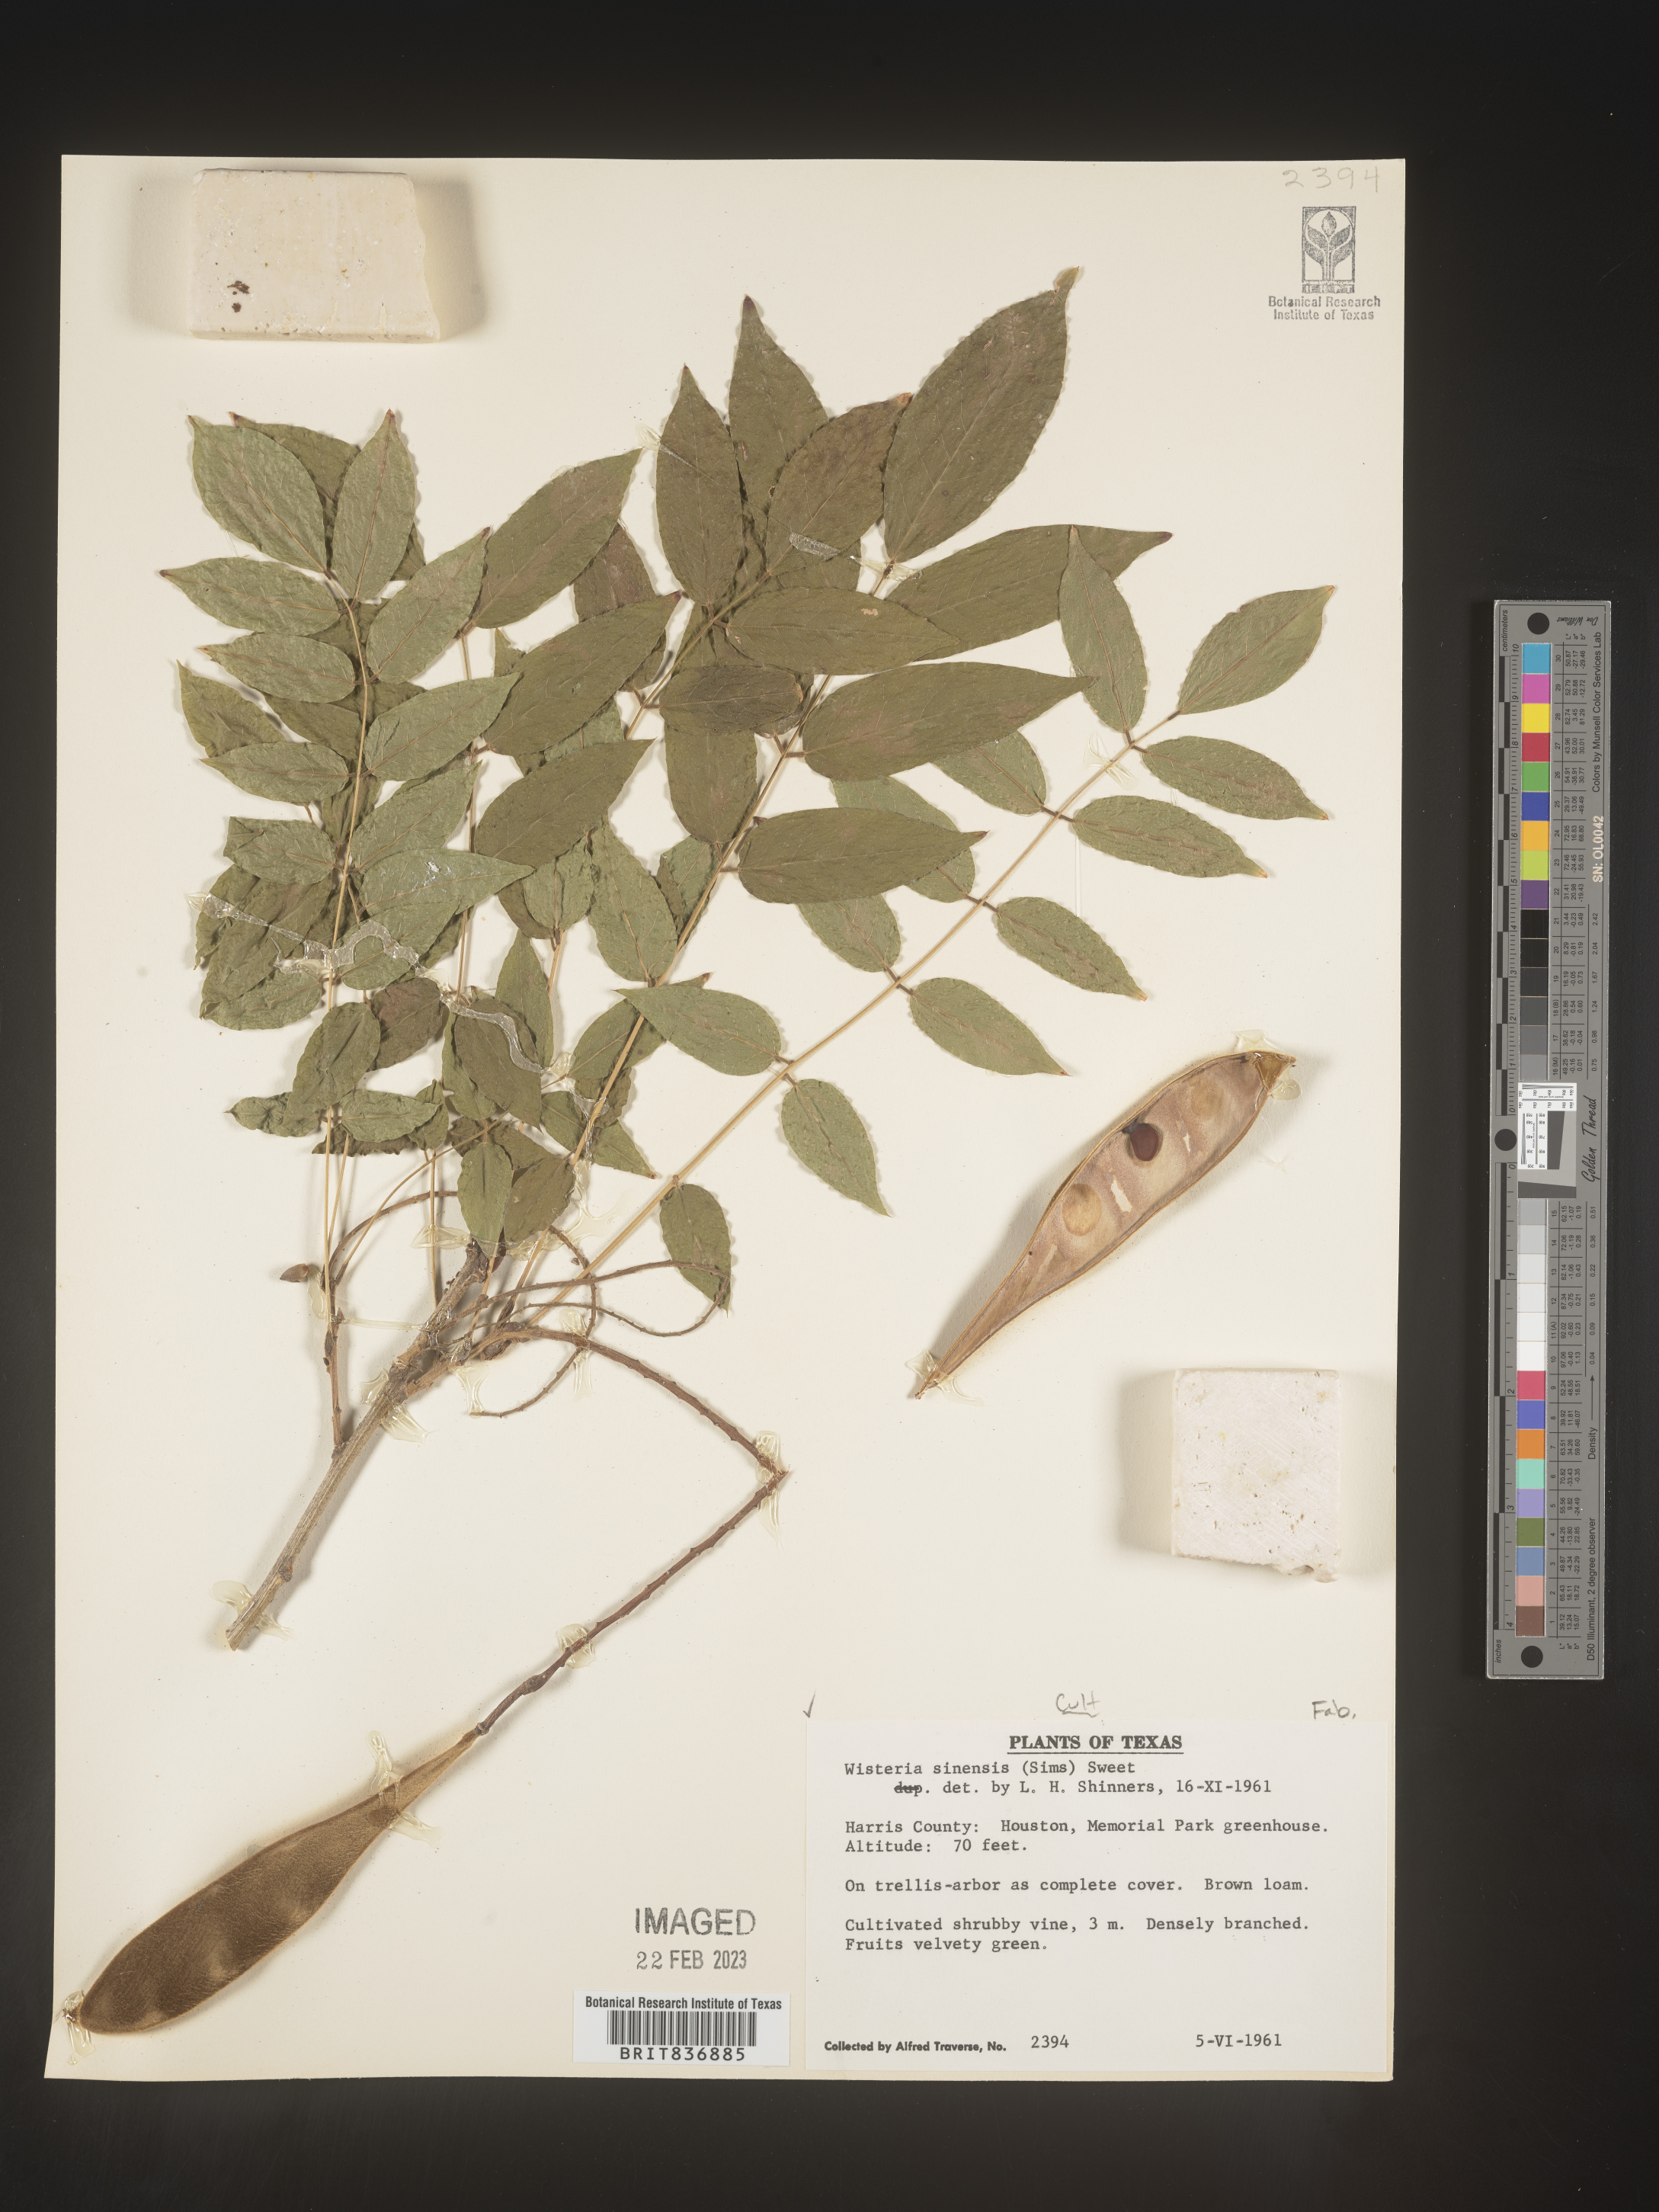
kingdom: Plantae
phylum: Tracheophyta
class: Magnoliopsida
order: Fabales
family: Fabaceae
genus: Wisteria
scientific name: Wisteria
